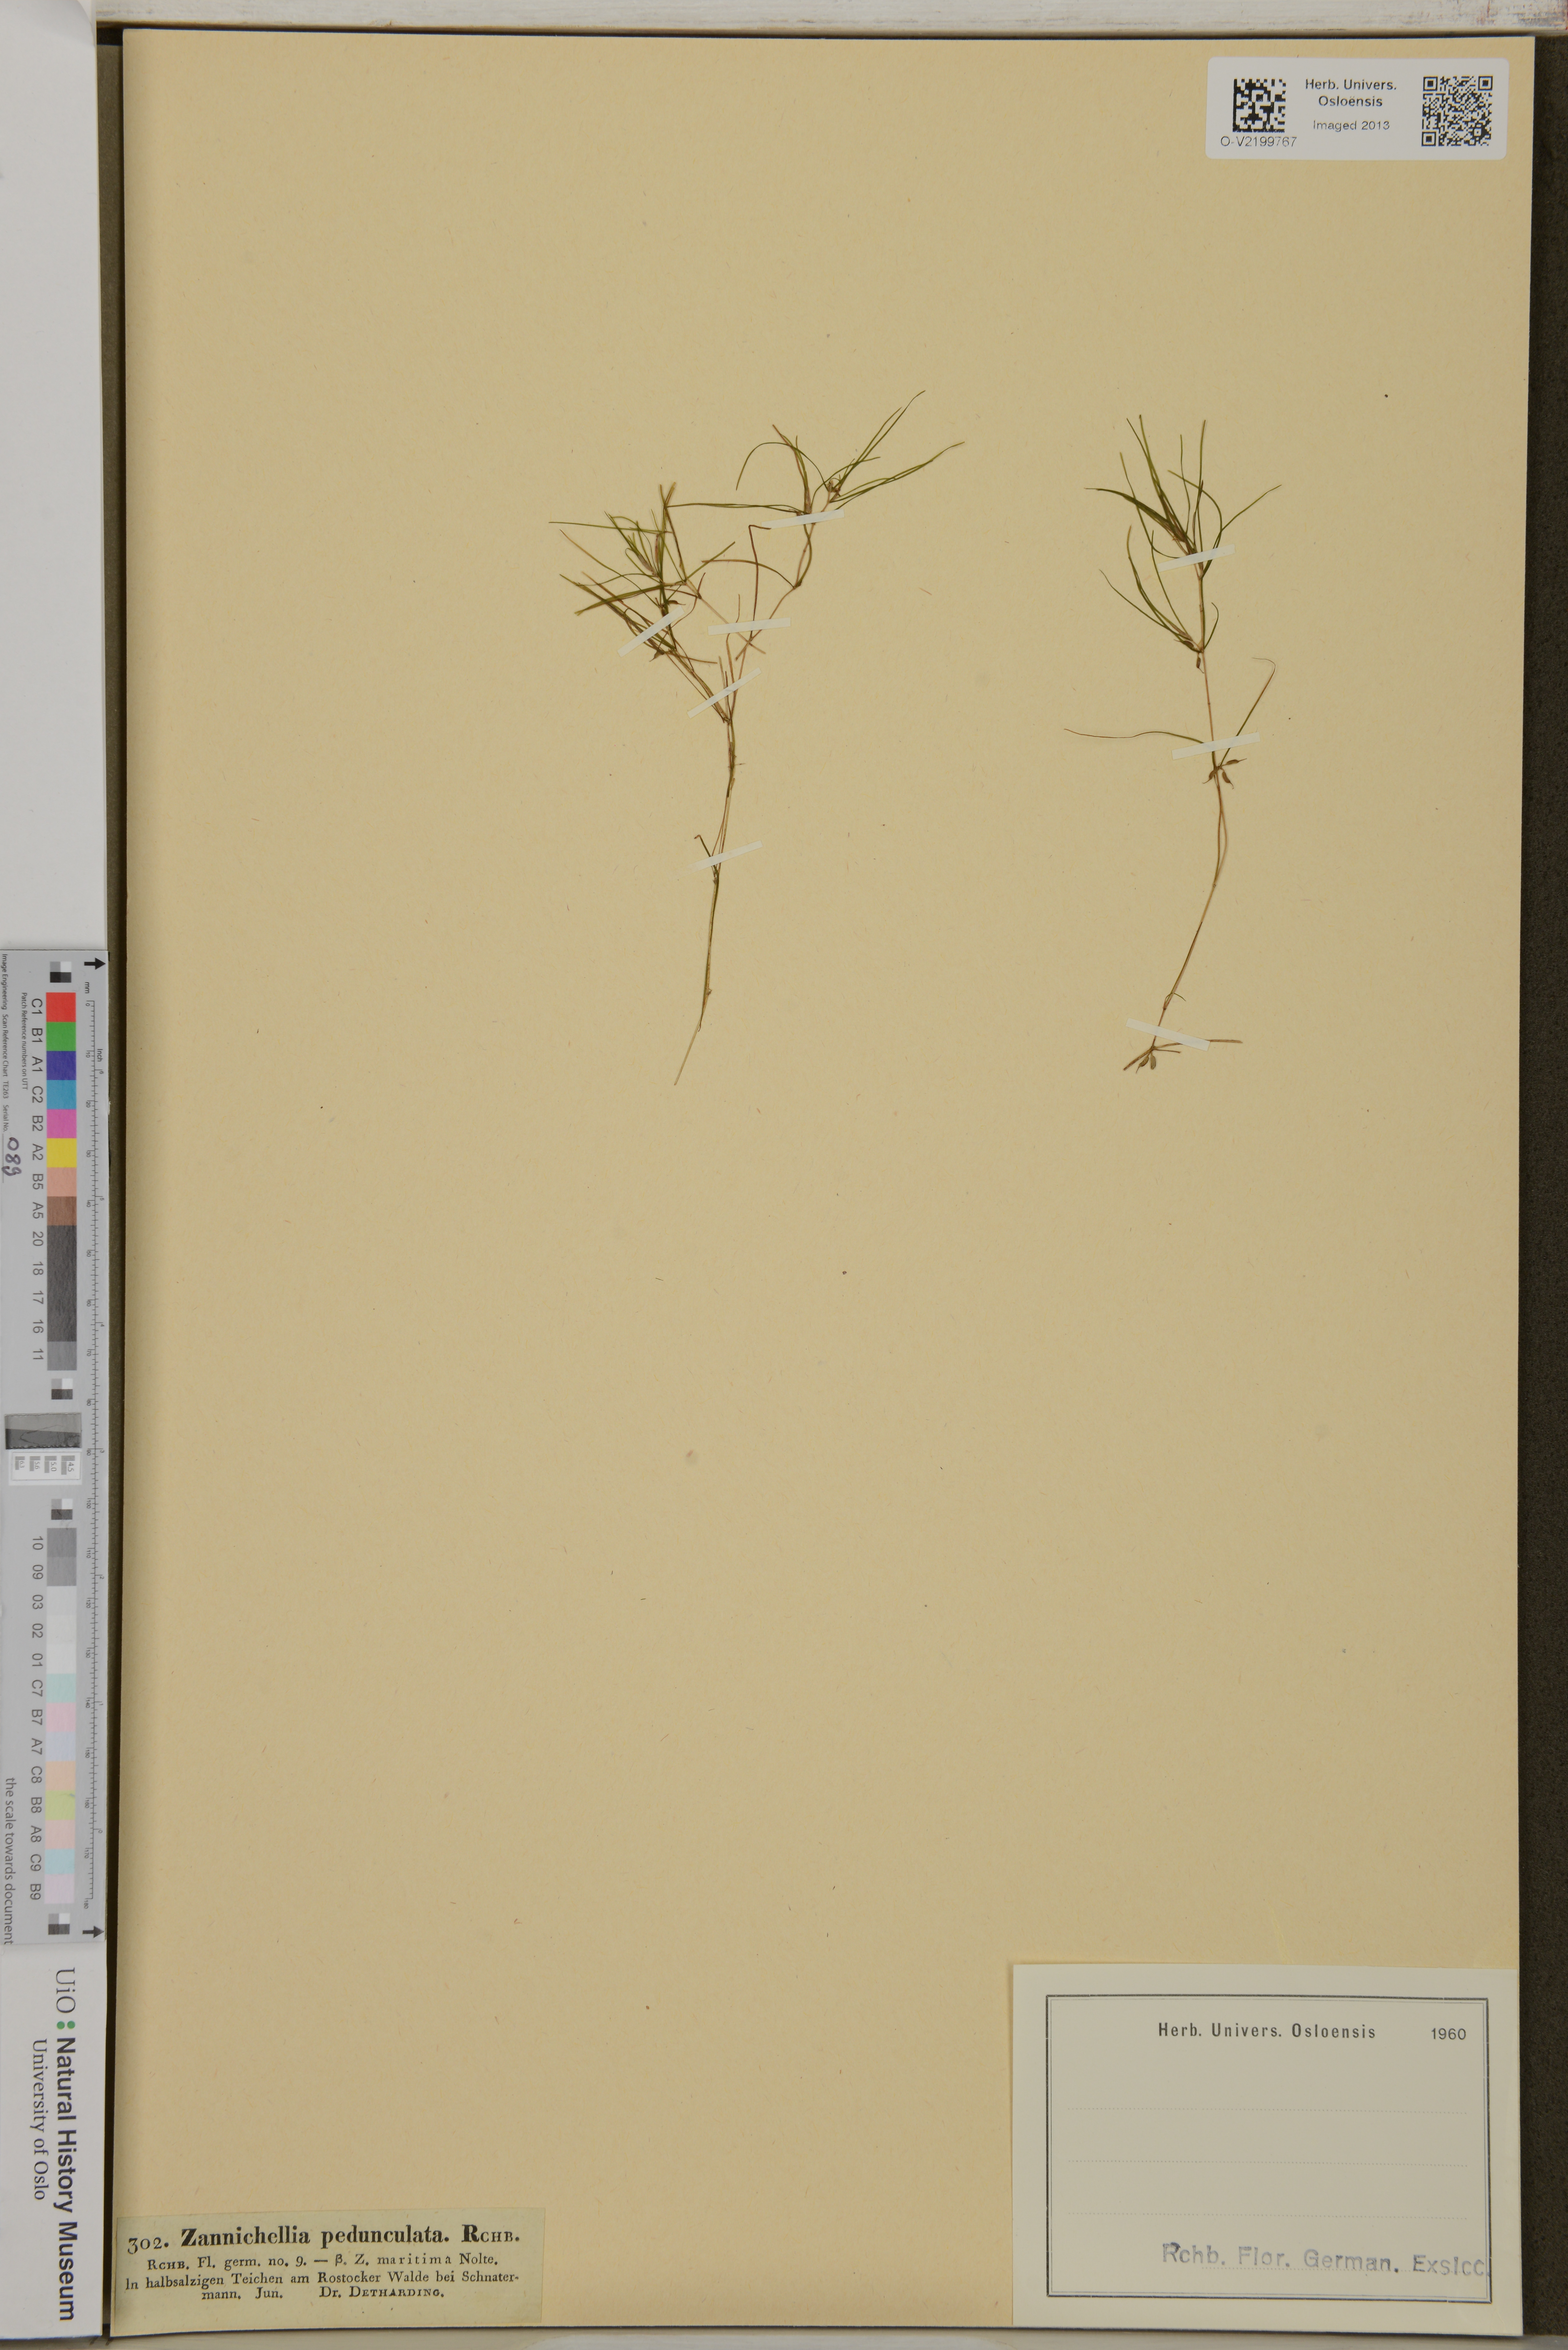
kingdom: Plantae
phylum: Tracheophyta
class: Liliopsida
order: Alismatales
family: Potamogetonaceae
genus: Zannichellia
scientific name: Zannichellia palustris
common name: Horned pondweed
